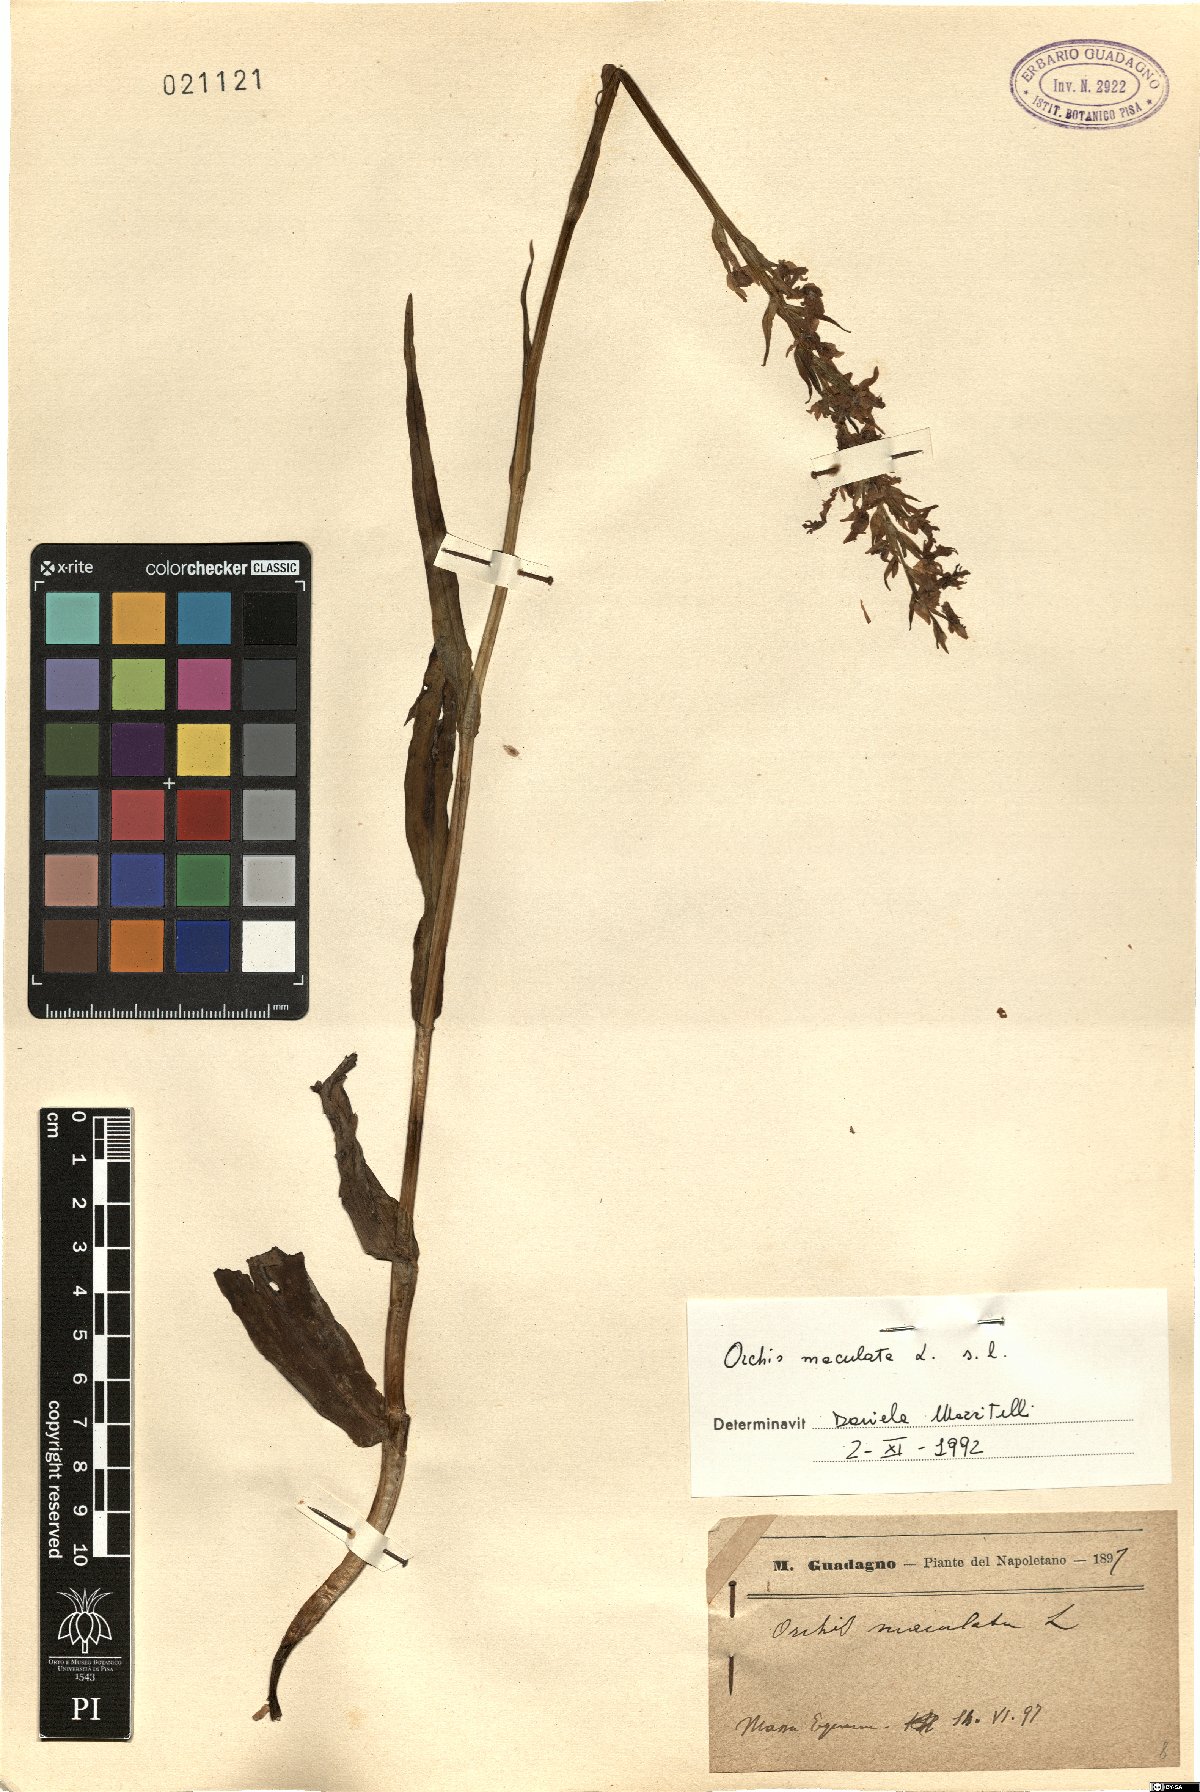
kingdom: Plantae
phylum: Tracheophyta
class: Liliopsida
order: Asparagales
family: Orchidaceae
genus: Dactylorhiza
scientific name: Dactylorhiza maculata
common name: Heath spotted-orchid
